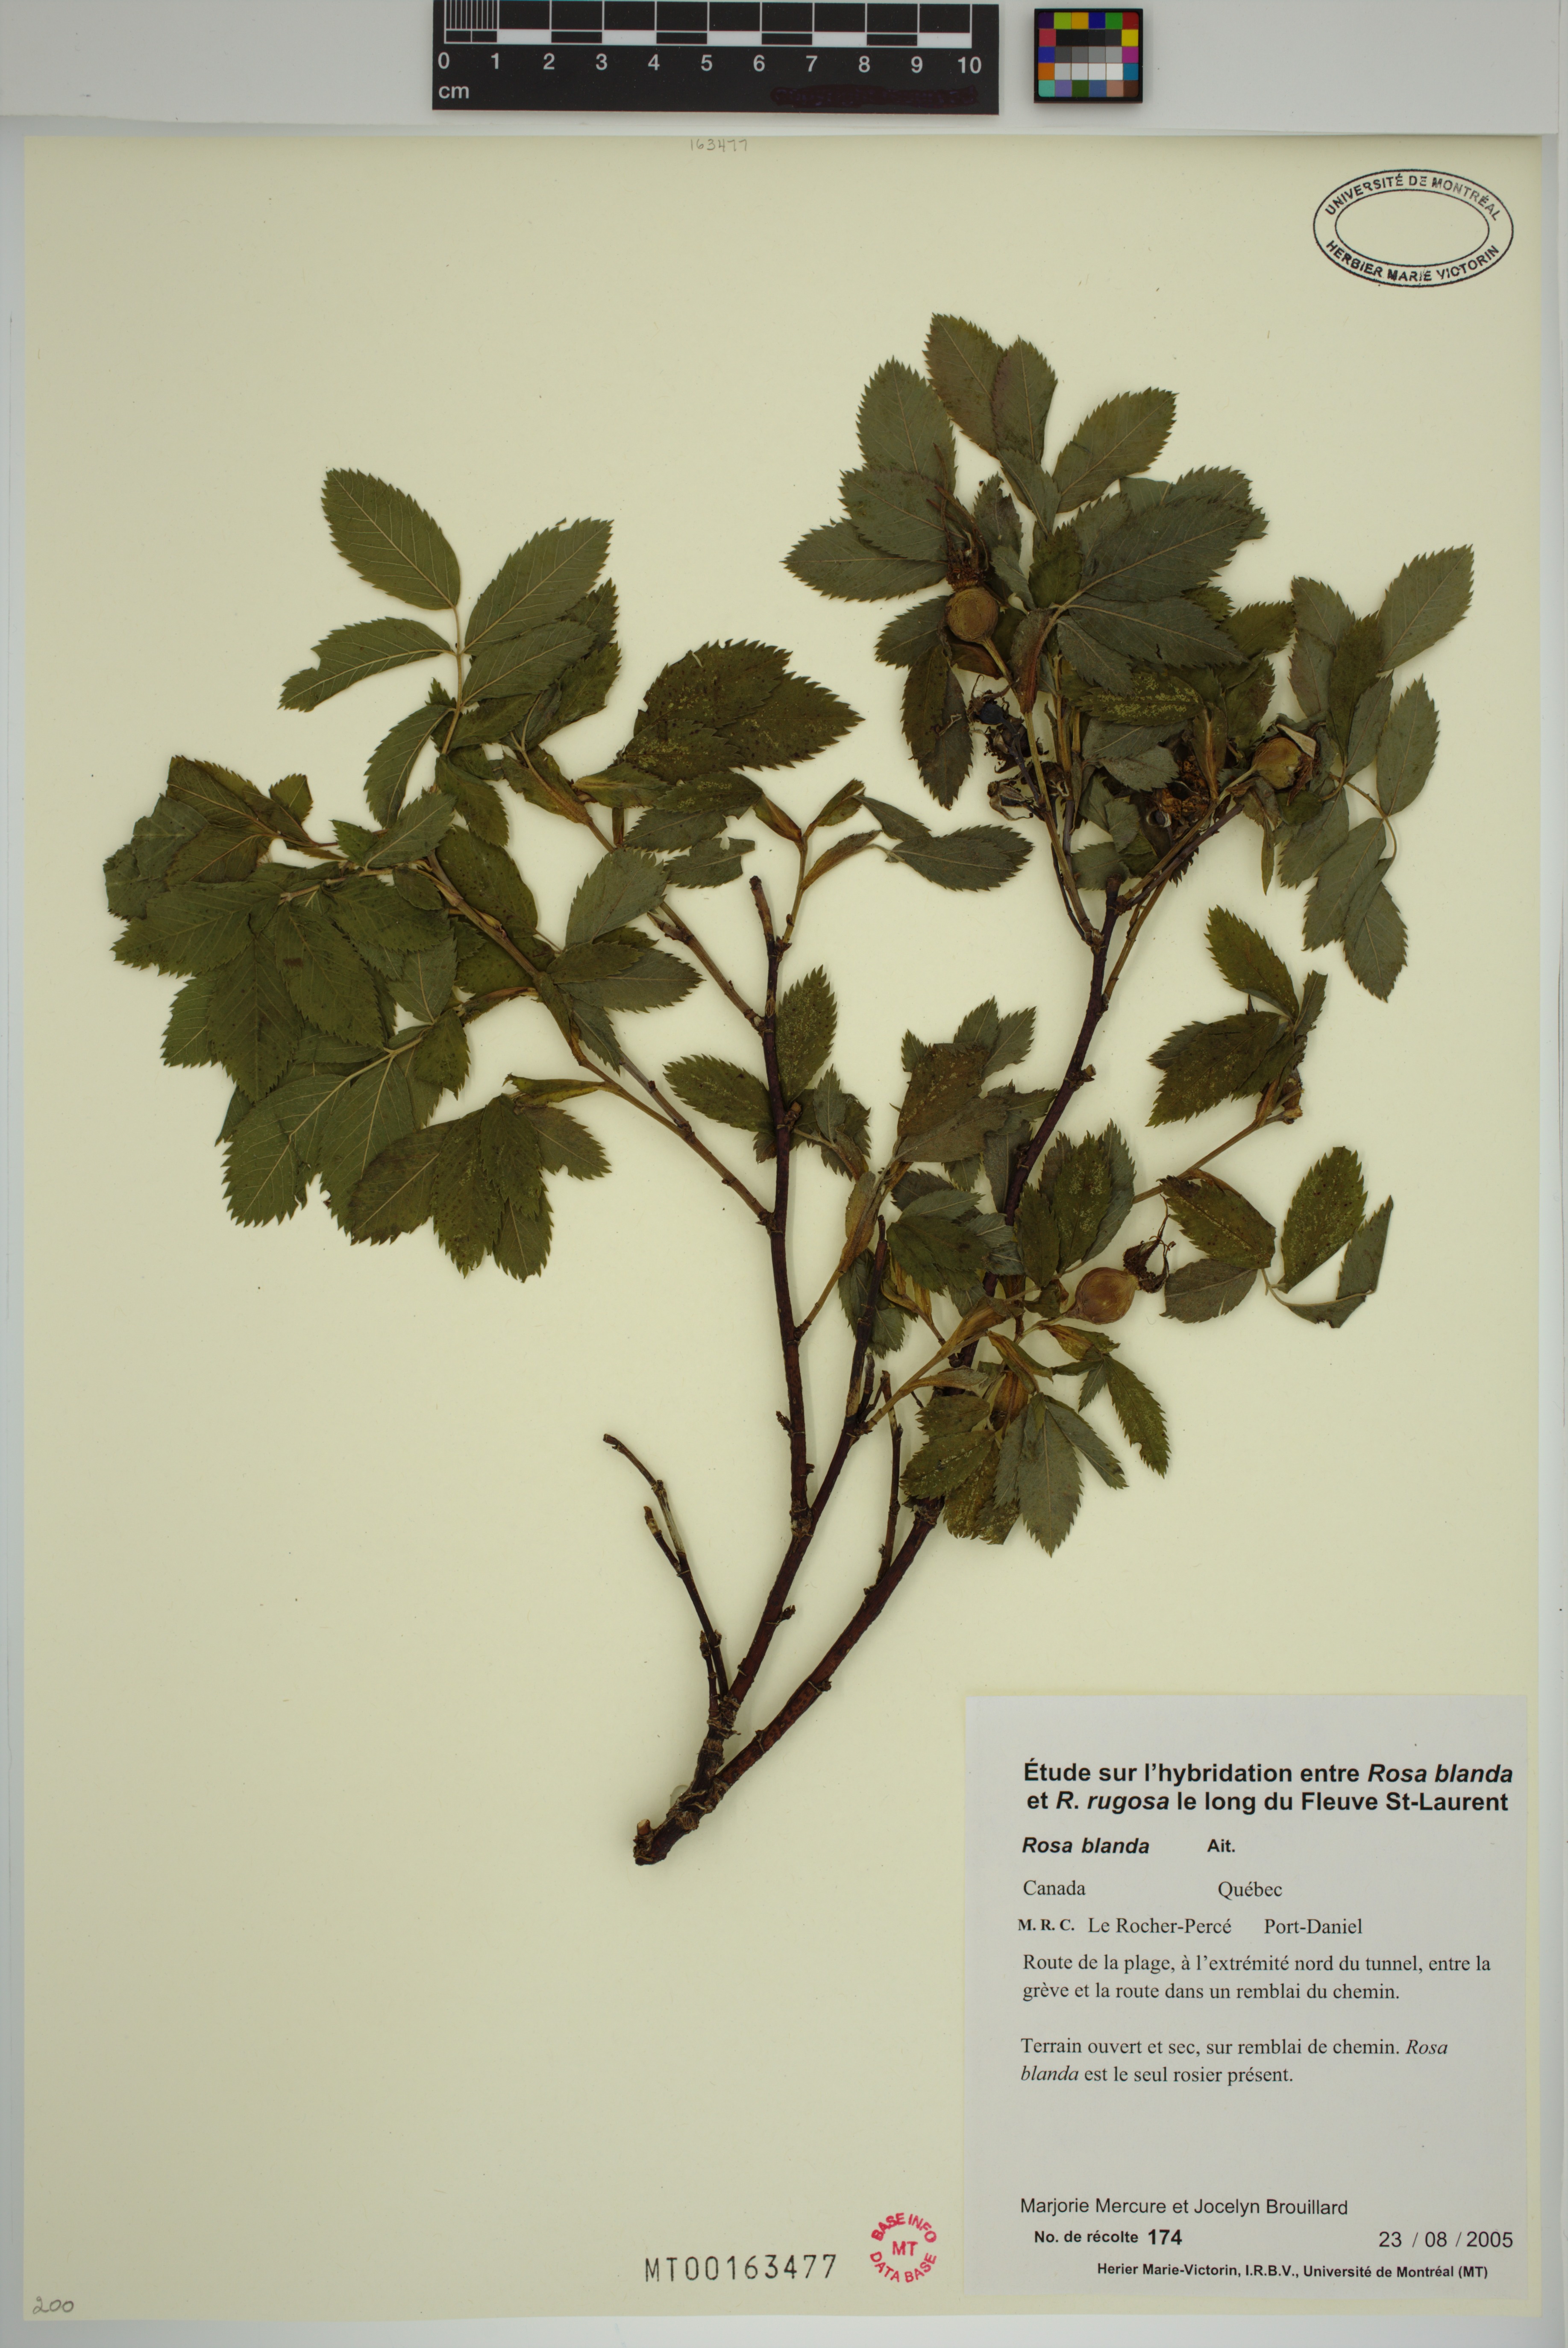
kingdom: Plantae
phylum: Tracheophyta
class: Magnoliopsida
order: Rosales
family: Rosaceae
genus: Rosa
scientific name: Rosa blanda
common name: Smooth rose
